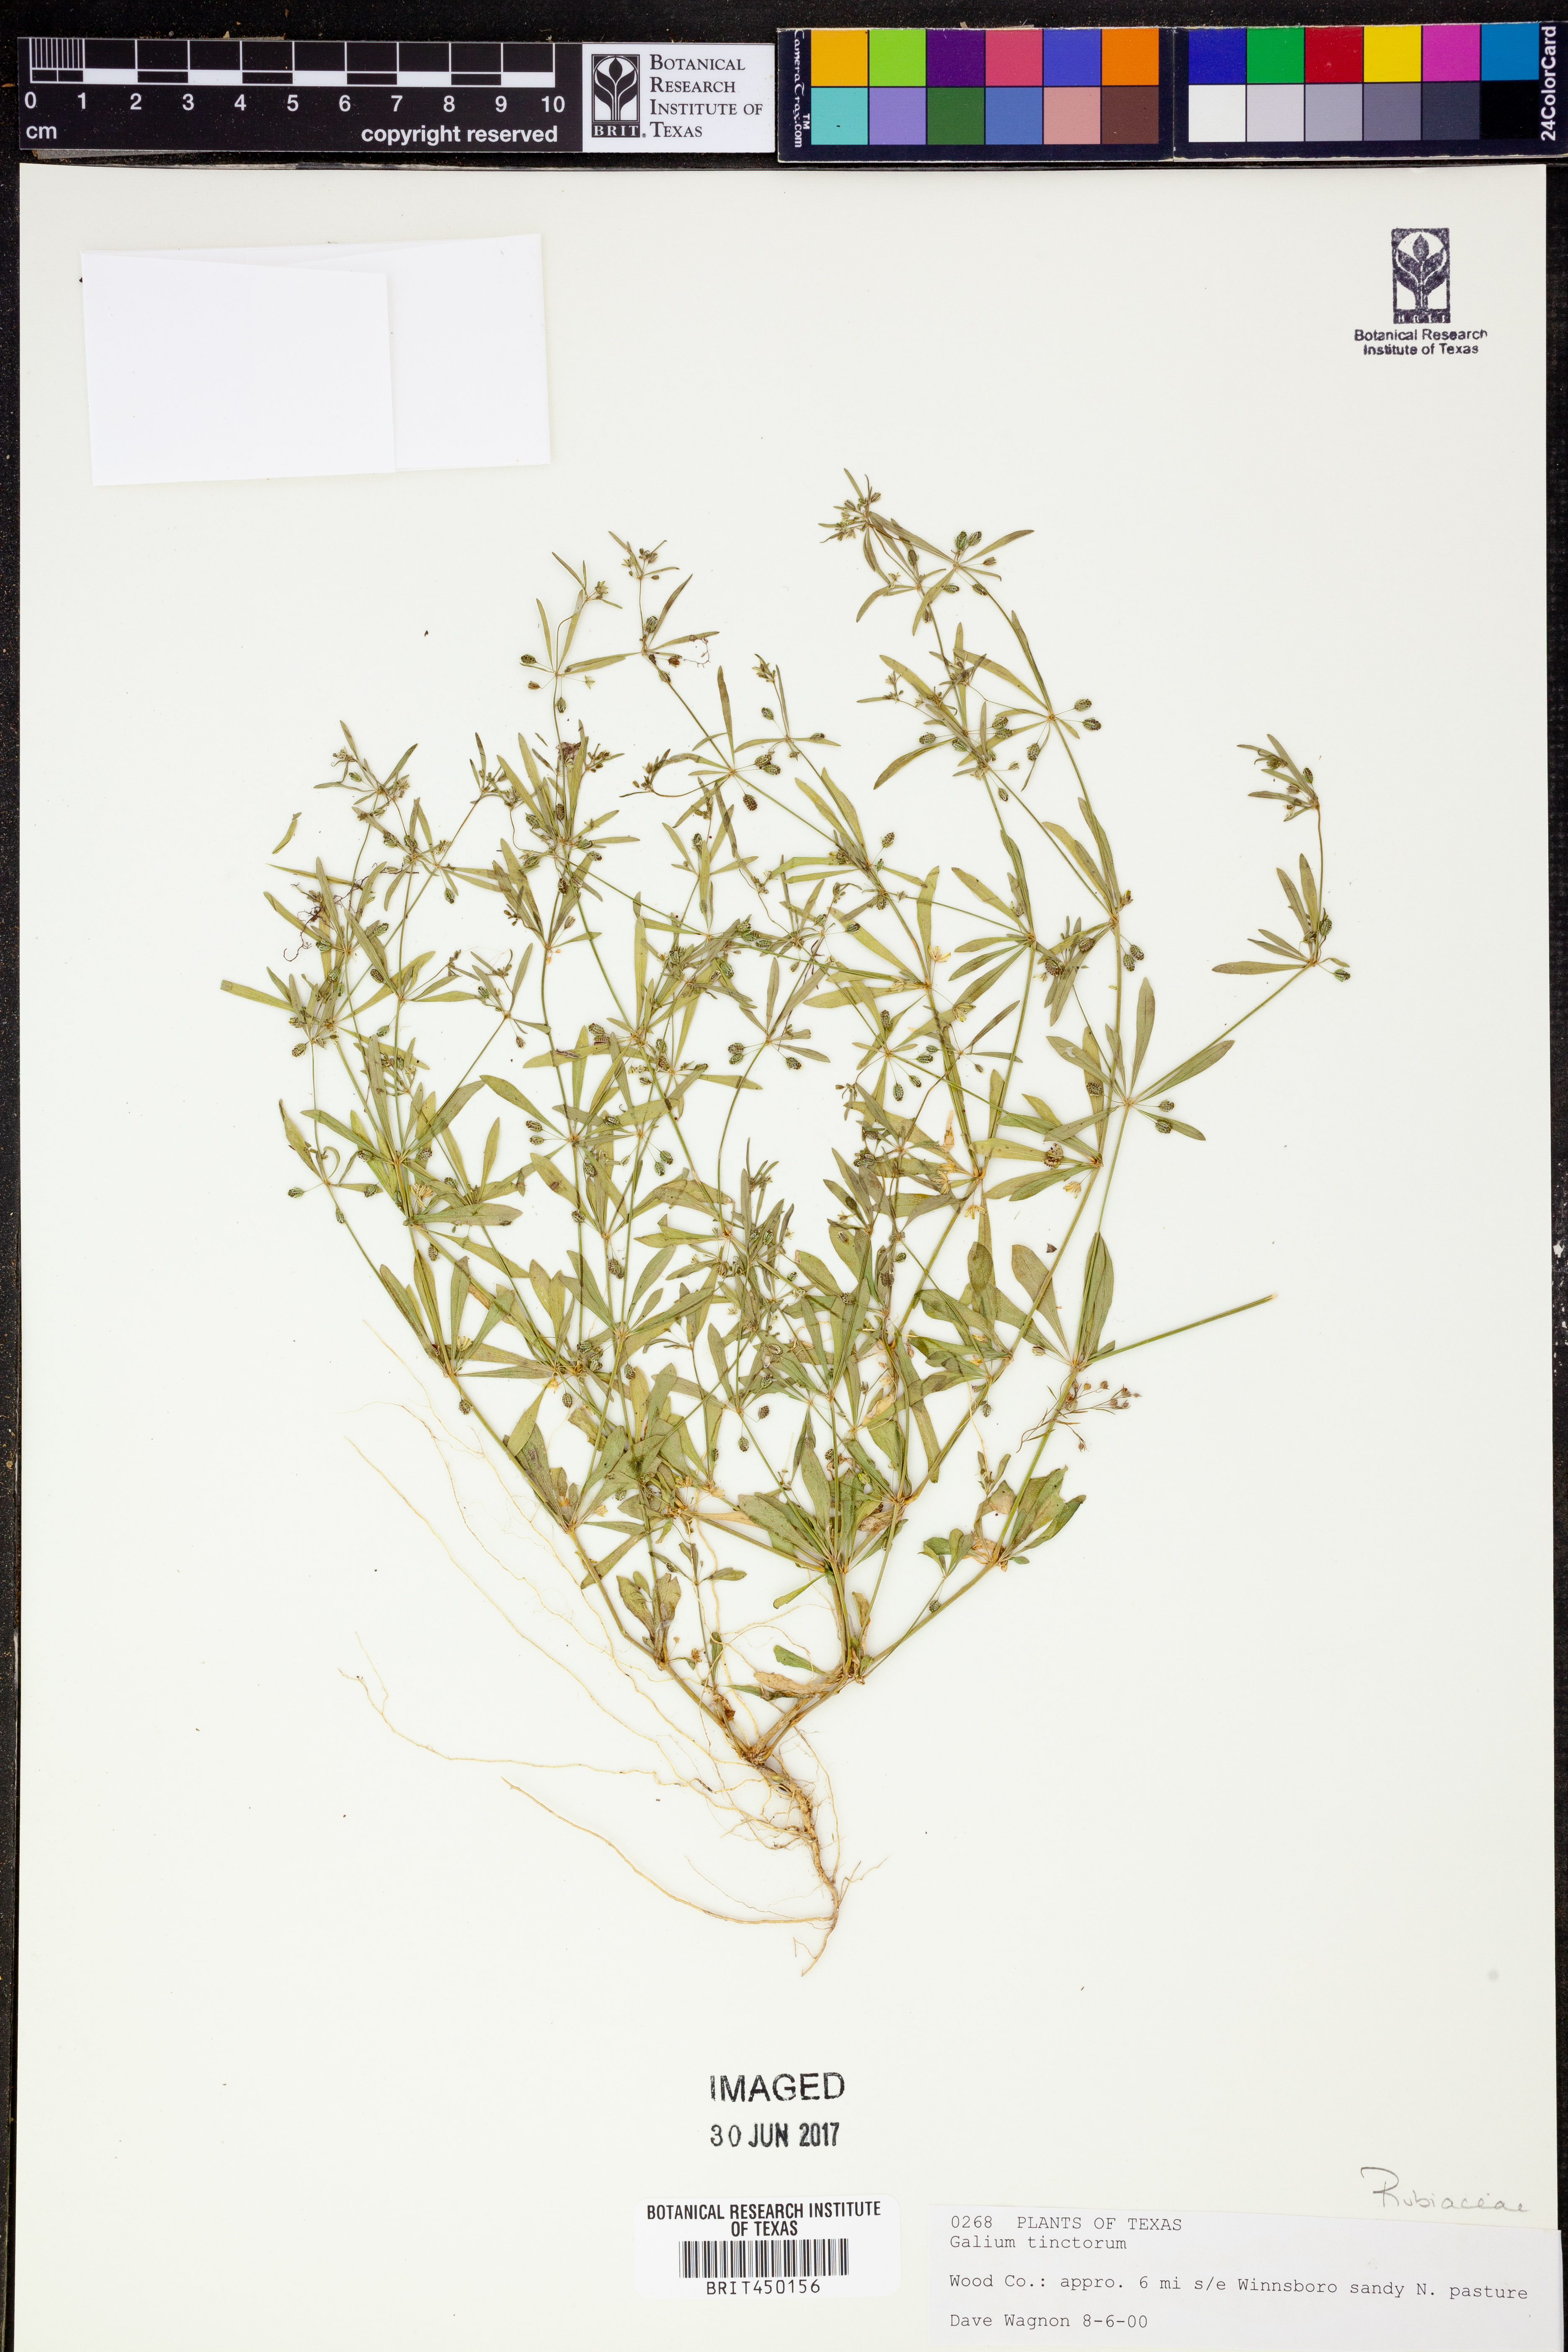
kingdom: Plantae
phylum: Tracheophyta
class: Magnoliopsida
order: Gentianales
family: Rubiaceae
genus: Asperula
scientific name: Asperula tinctoria
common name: Dyer's woodruff
